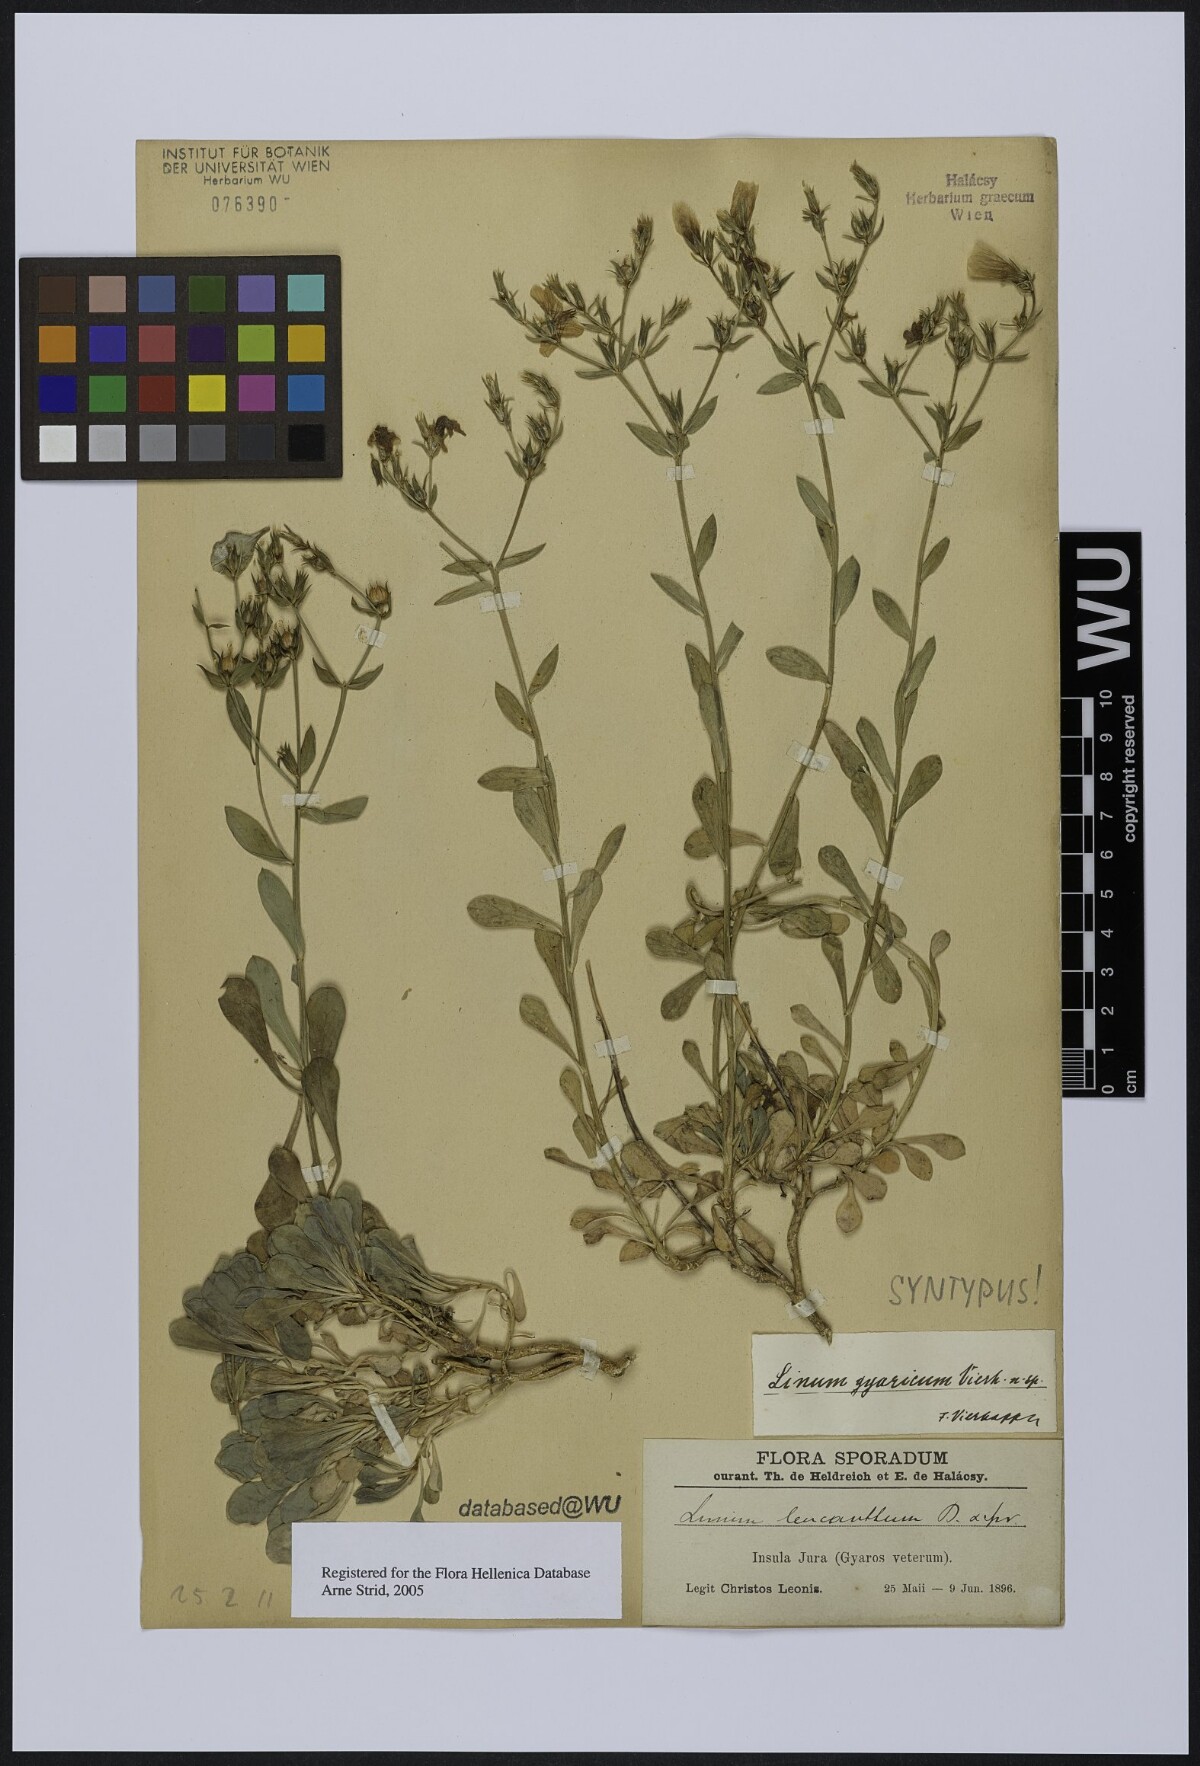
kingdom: Plantae
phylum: Tracheophyta
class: Magnoliopsida
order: Malpighiales
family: Linaceae
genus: Linum
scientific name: Linum gyaricum
